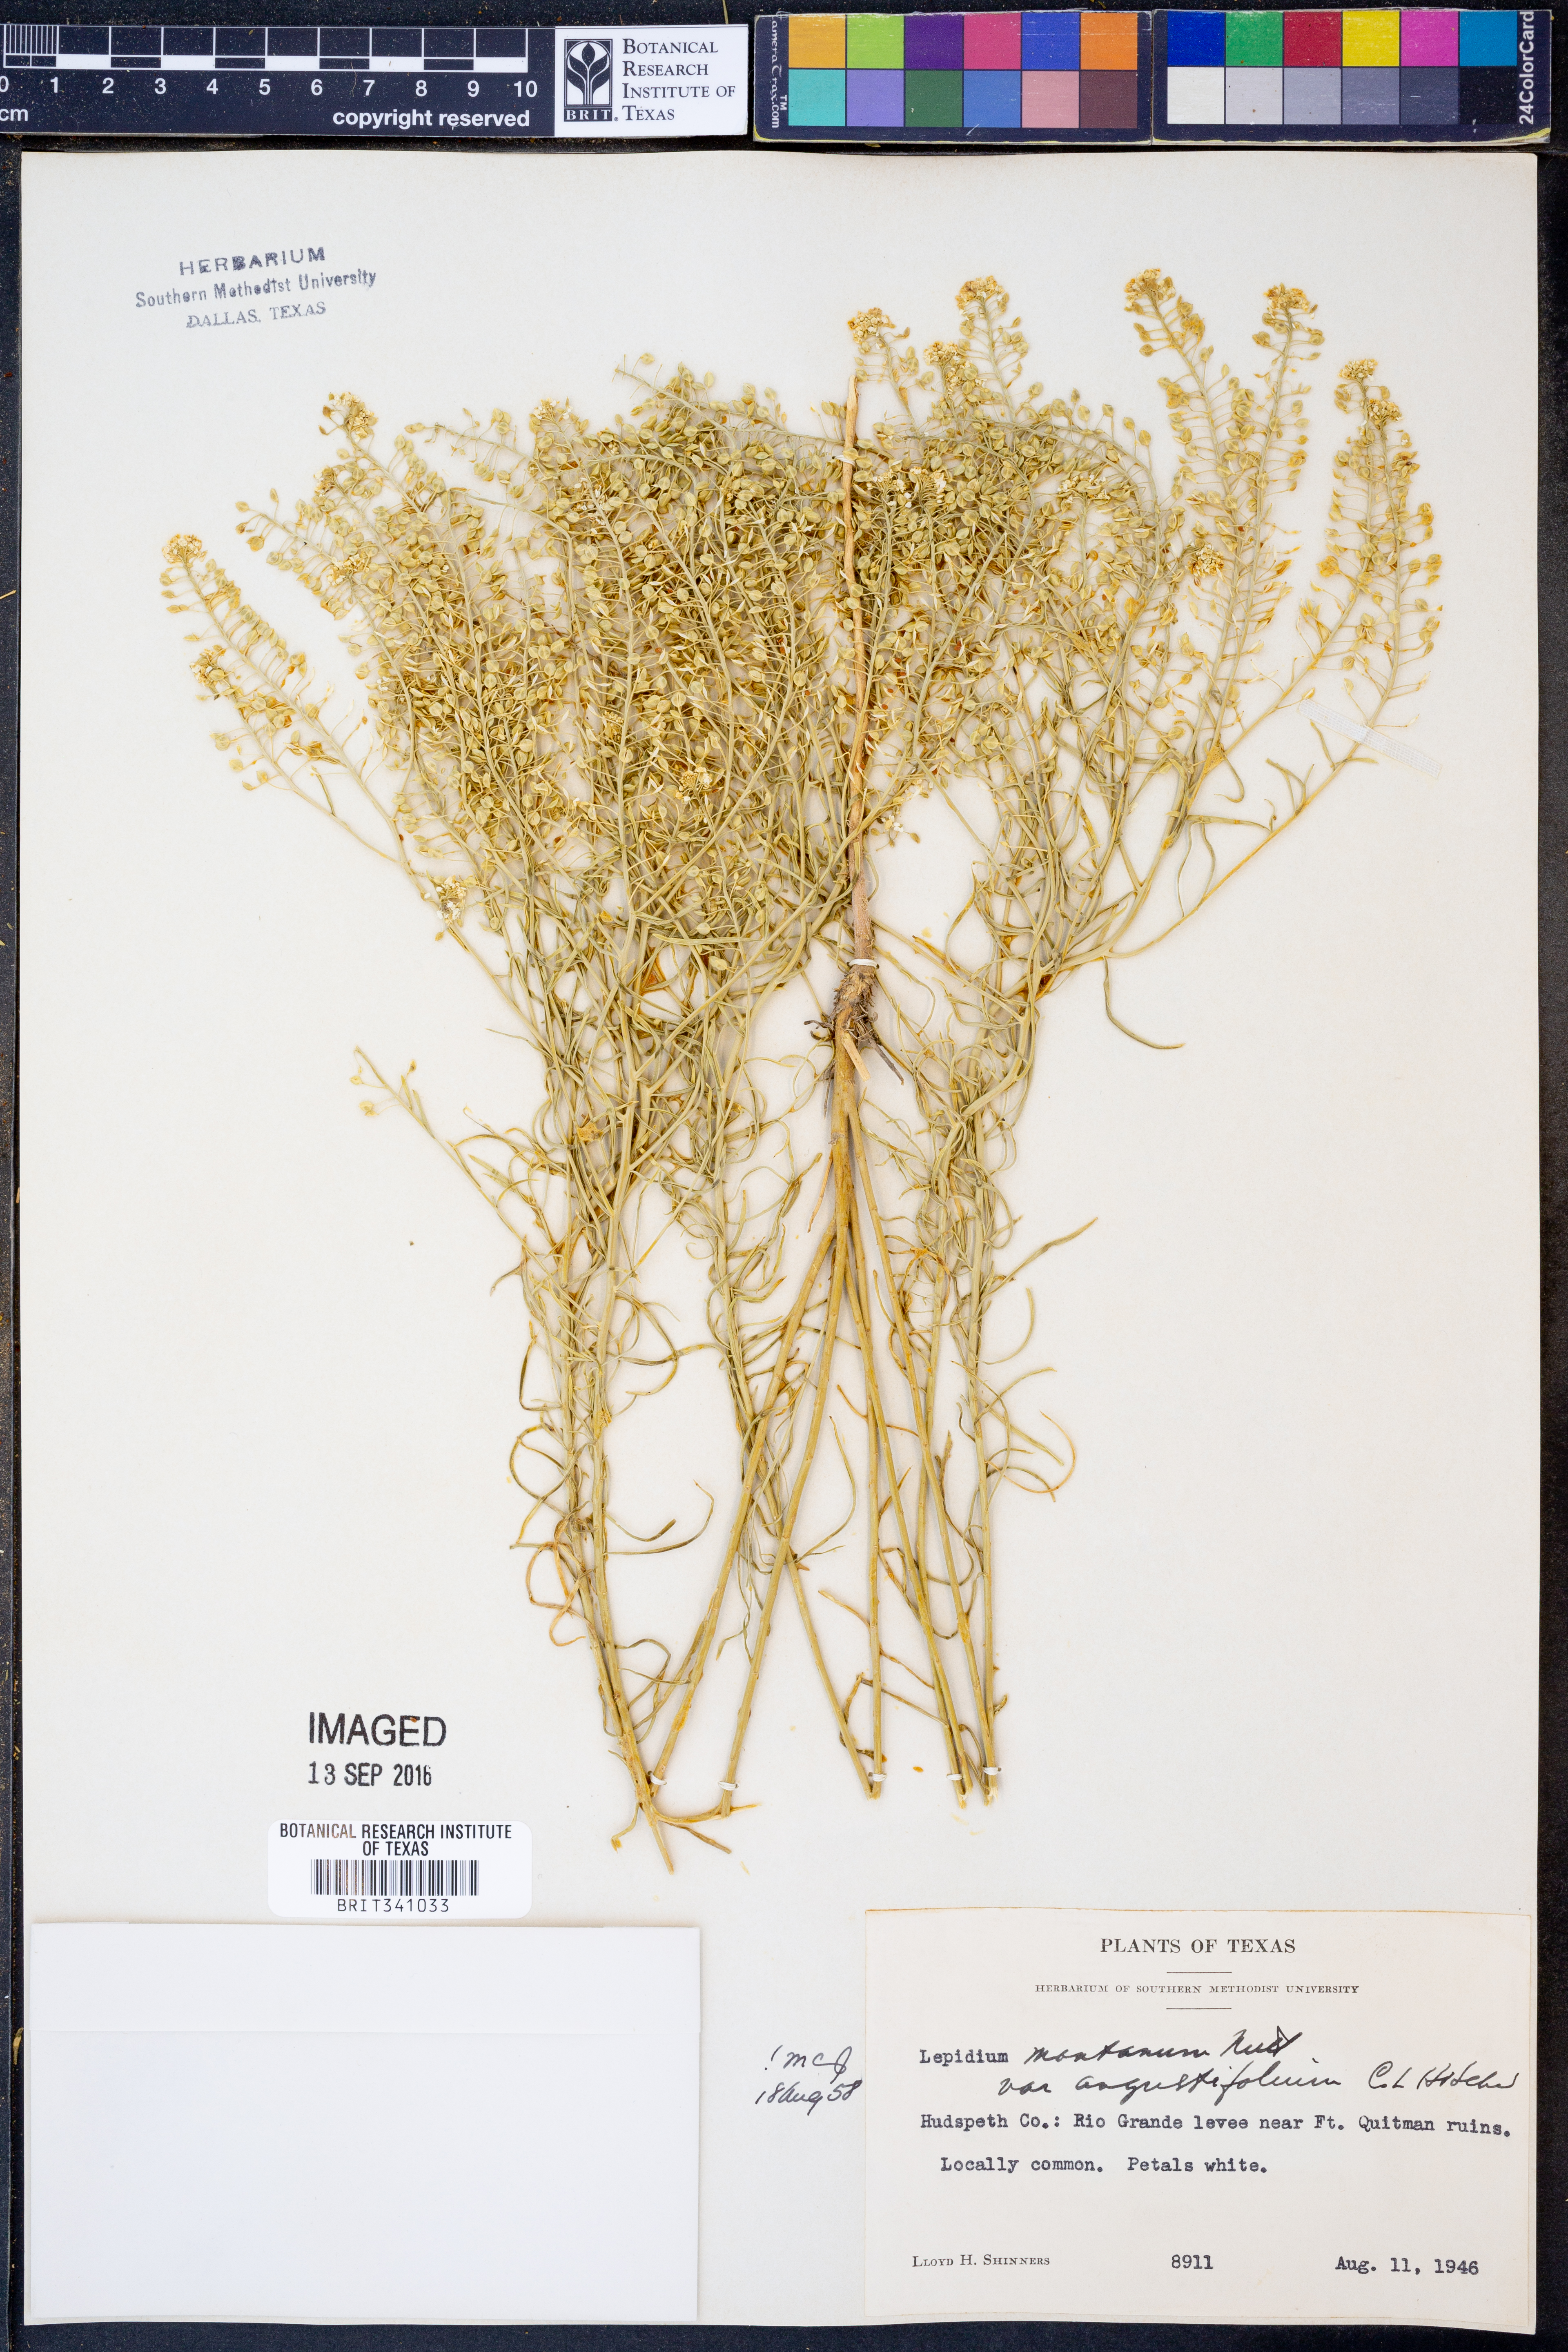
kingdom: Plantae
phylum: Tracheophyta
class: Magnoliopsida
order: Brassicales
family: Brassicaceae
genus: Lepidium
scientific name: Lepidium alyssoides
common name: Mesa pepperweed
